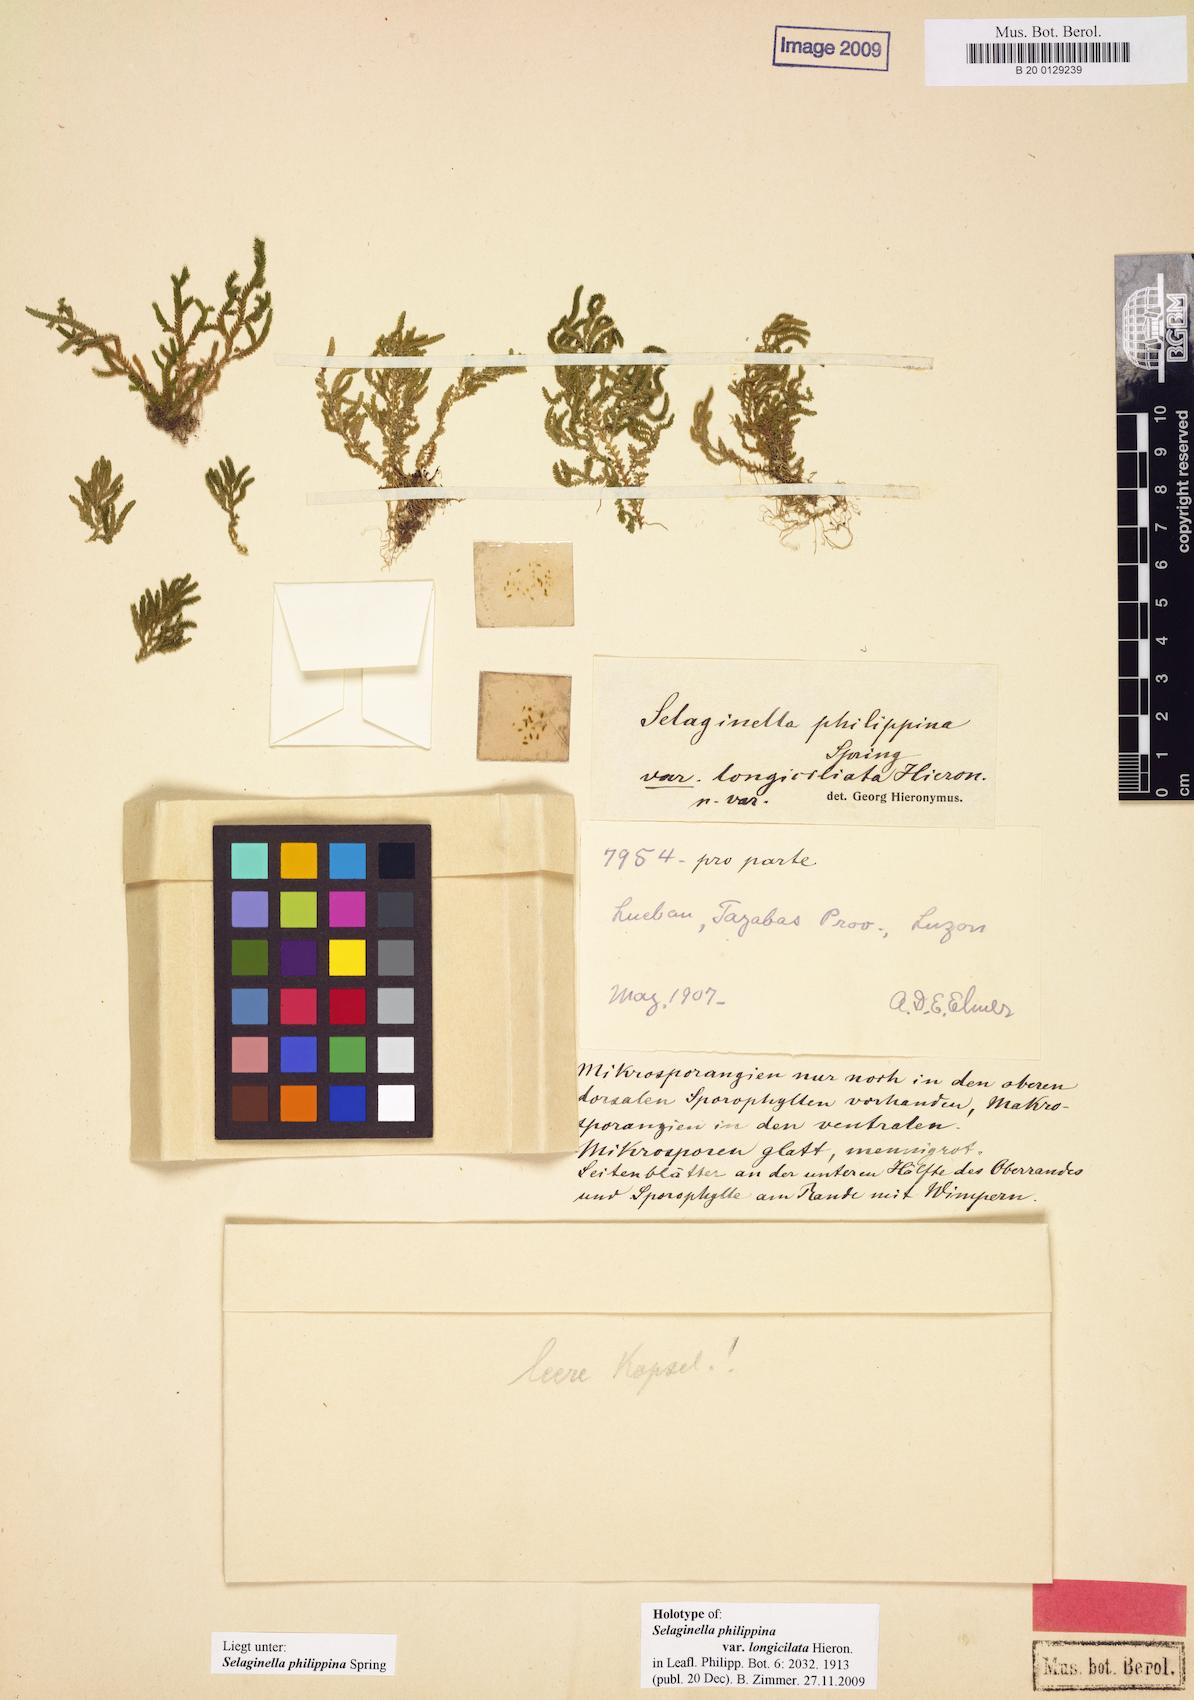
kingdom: Plantae
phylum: Tracheophyta
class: Lycopodiopsida
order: Selaginellales
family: Selaginellaceae
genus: Selaginella
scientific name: Selaginella philippsiana
